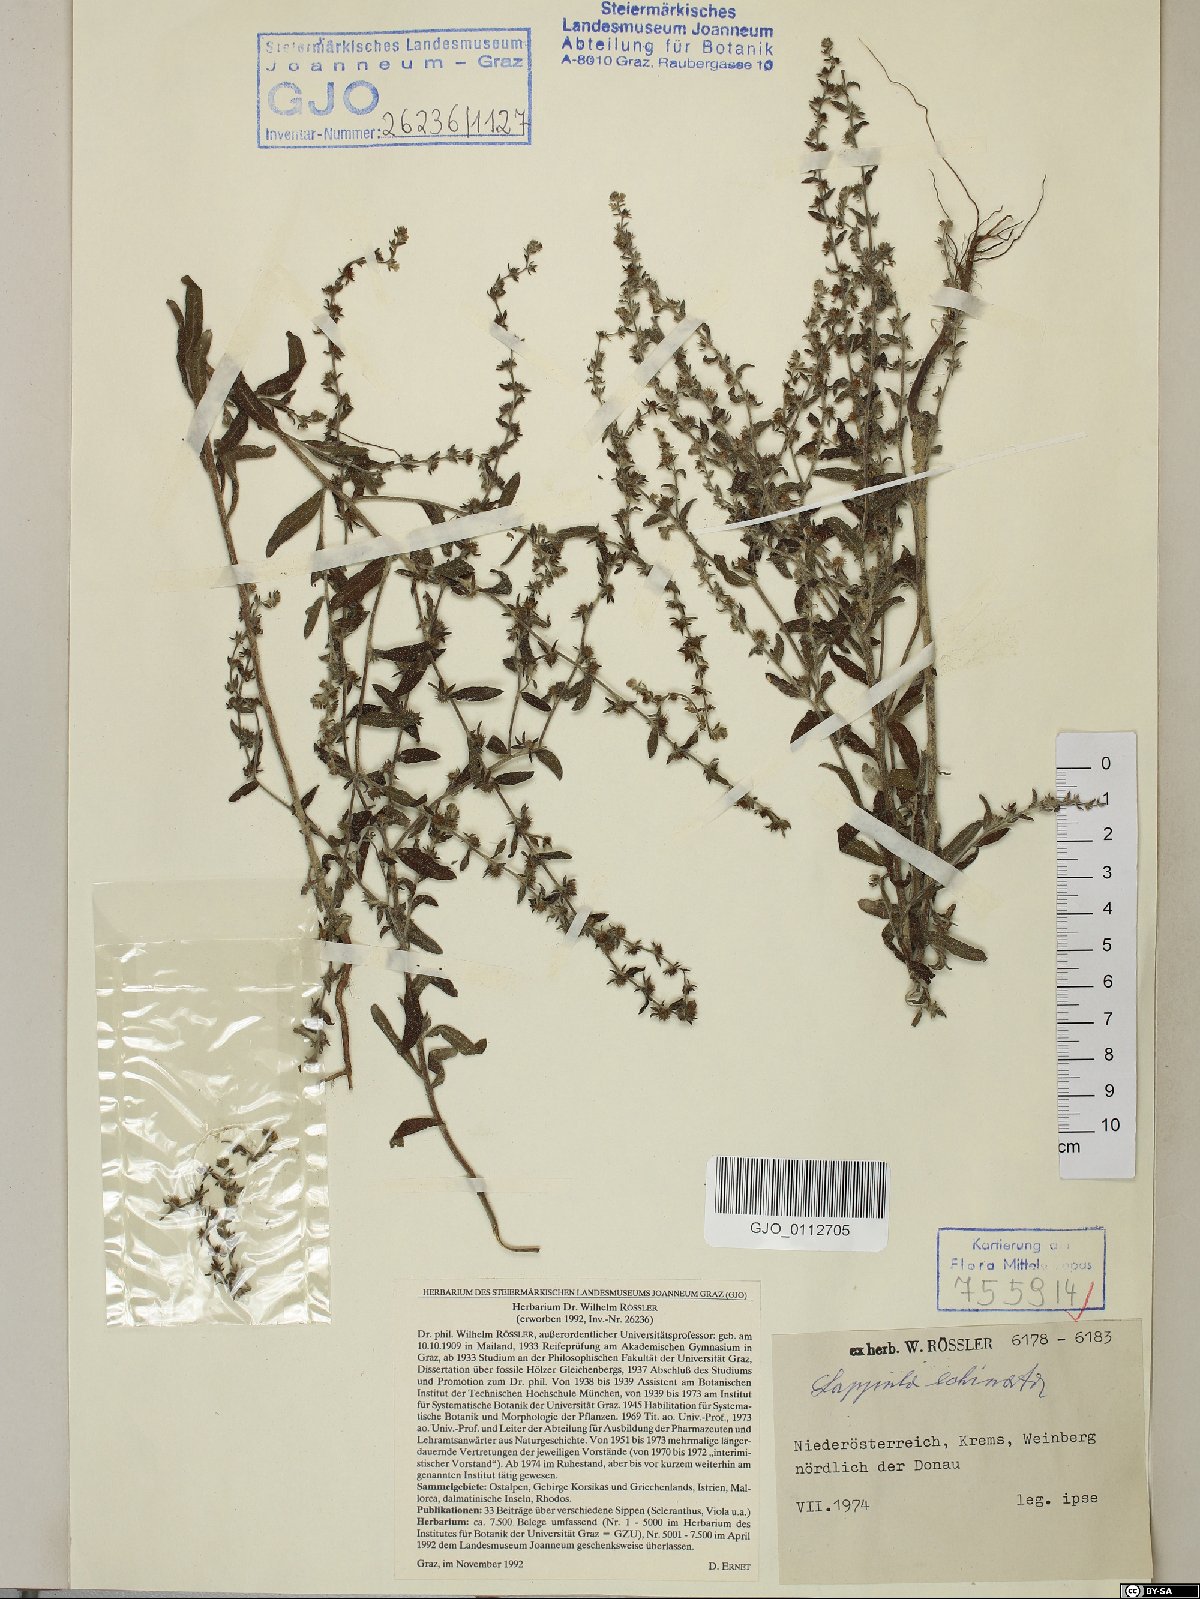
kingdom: Plantae
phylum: Tracheophyta
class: Magnoliopsida
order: Boraginales
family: Boraginaceae
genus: Lappula
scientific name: Lappula squarrosa
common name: European stickseed
